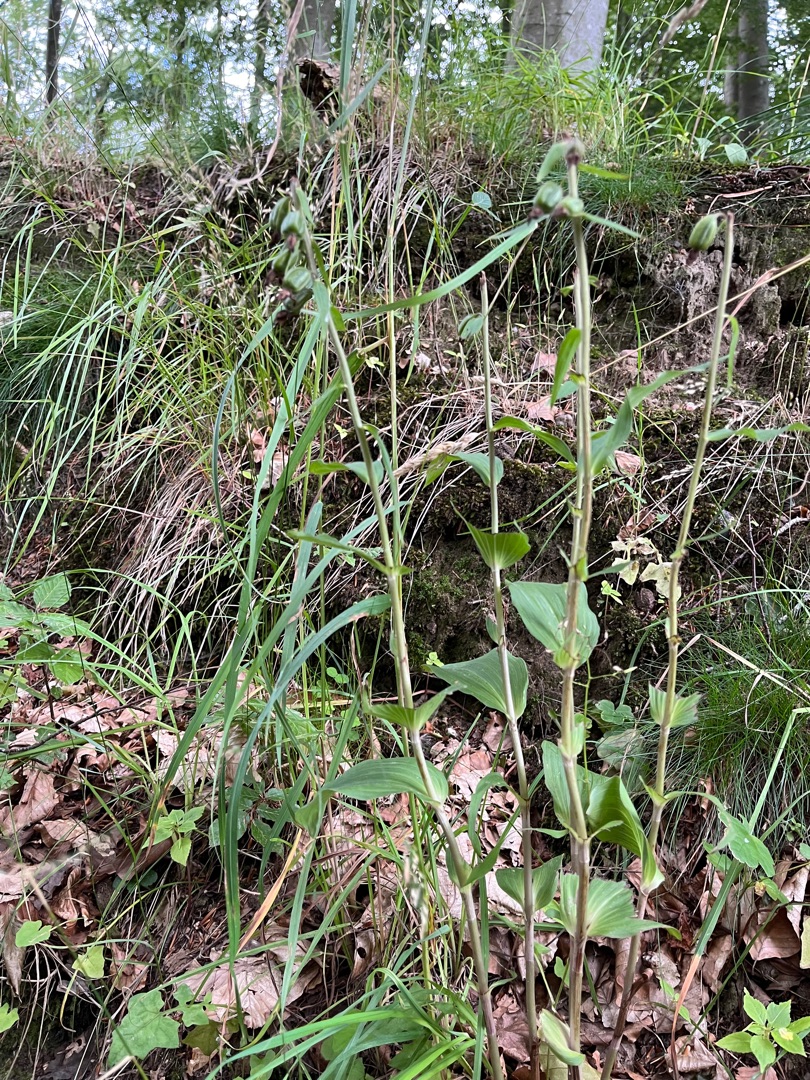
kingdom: Plantae
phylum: Tracheophyta
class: Liliopsida
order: Asparagales
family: Orchidaceae
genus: Epipactis
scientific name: Epipactis helleborine
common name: Skov-hullæbe
